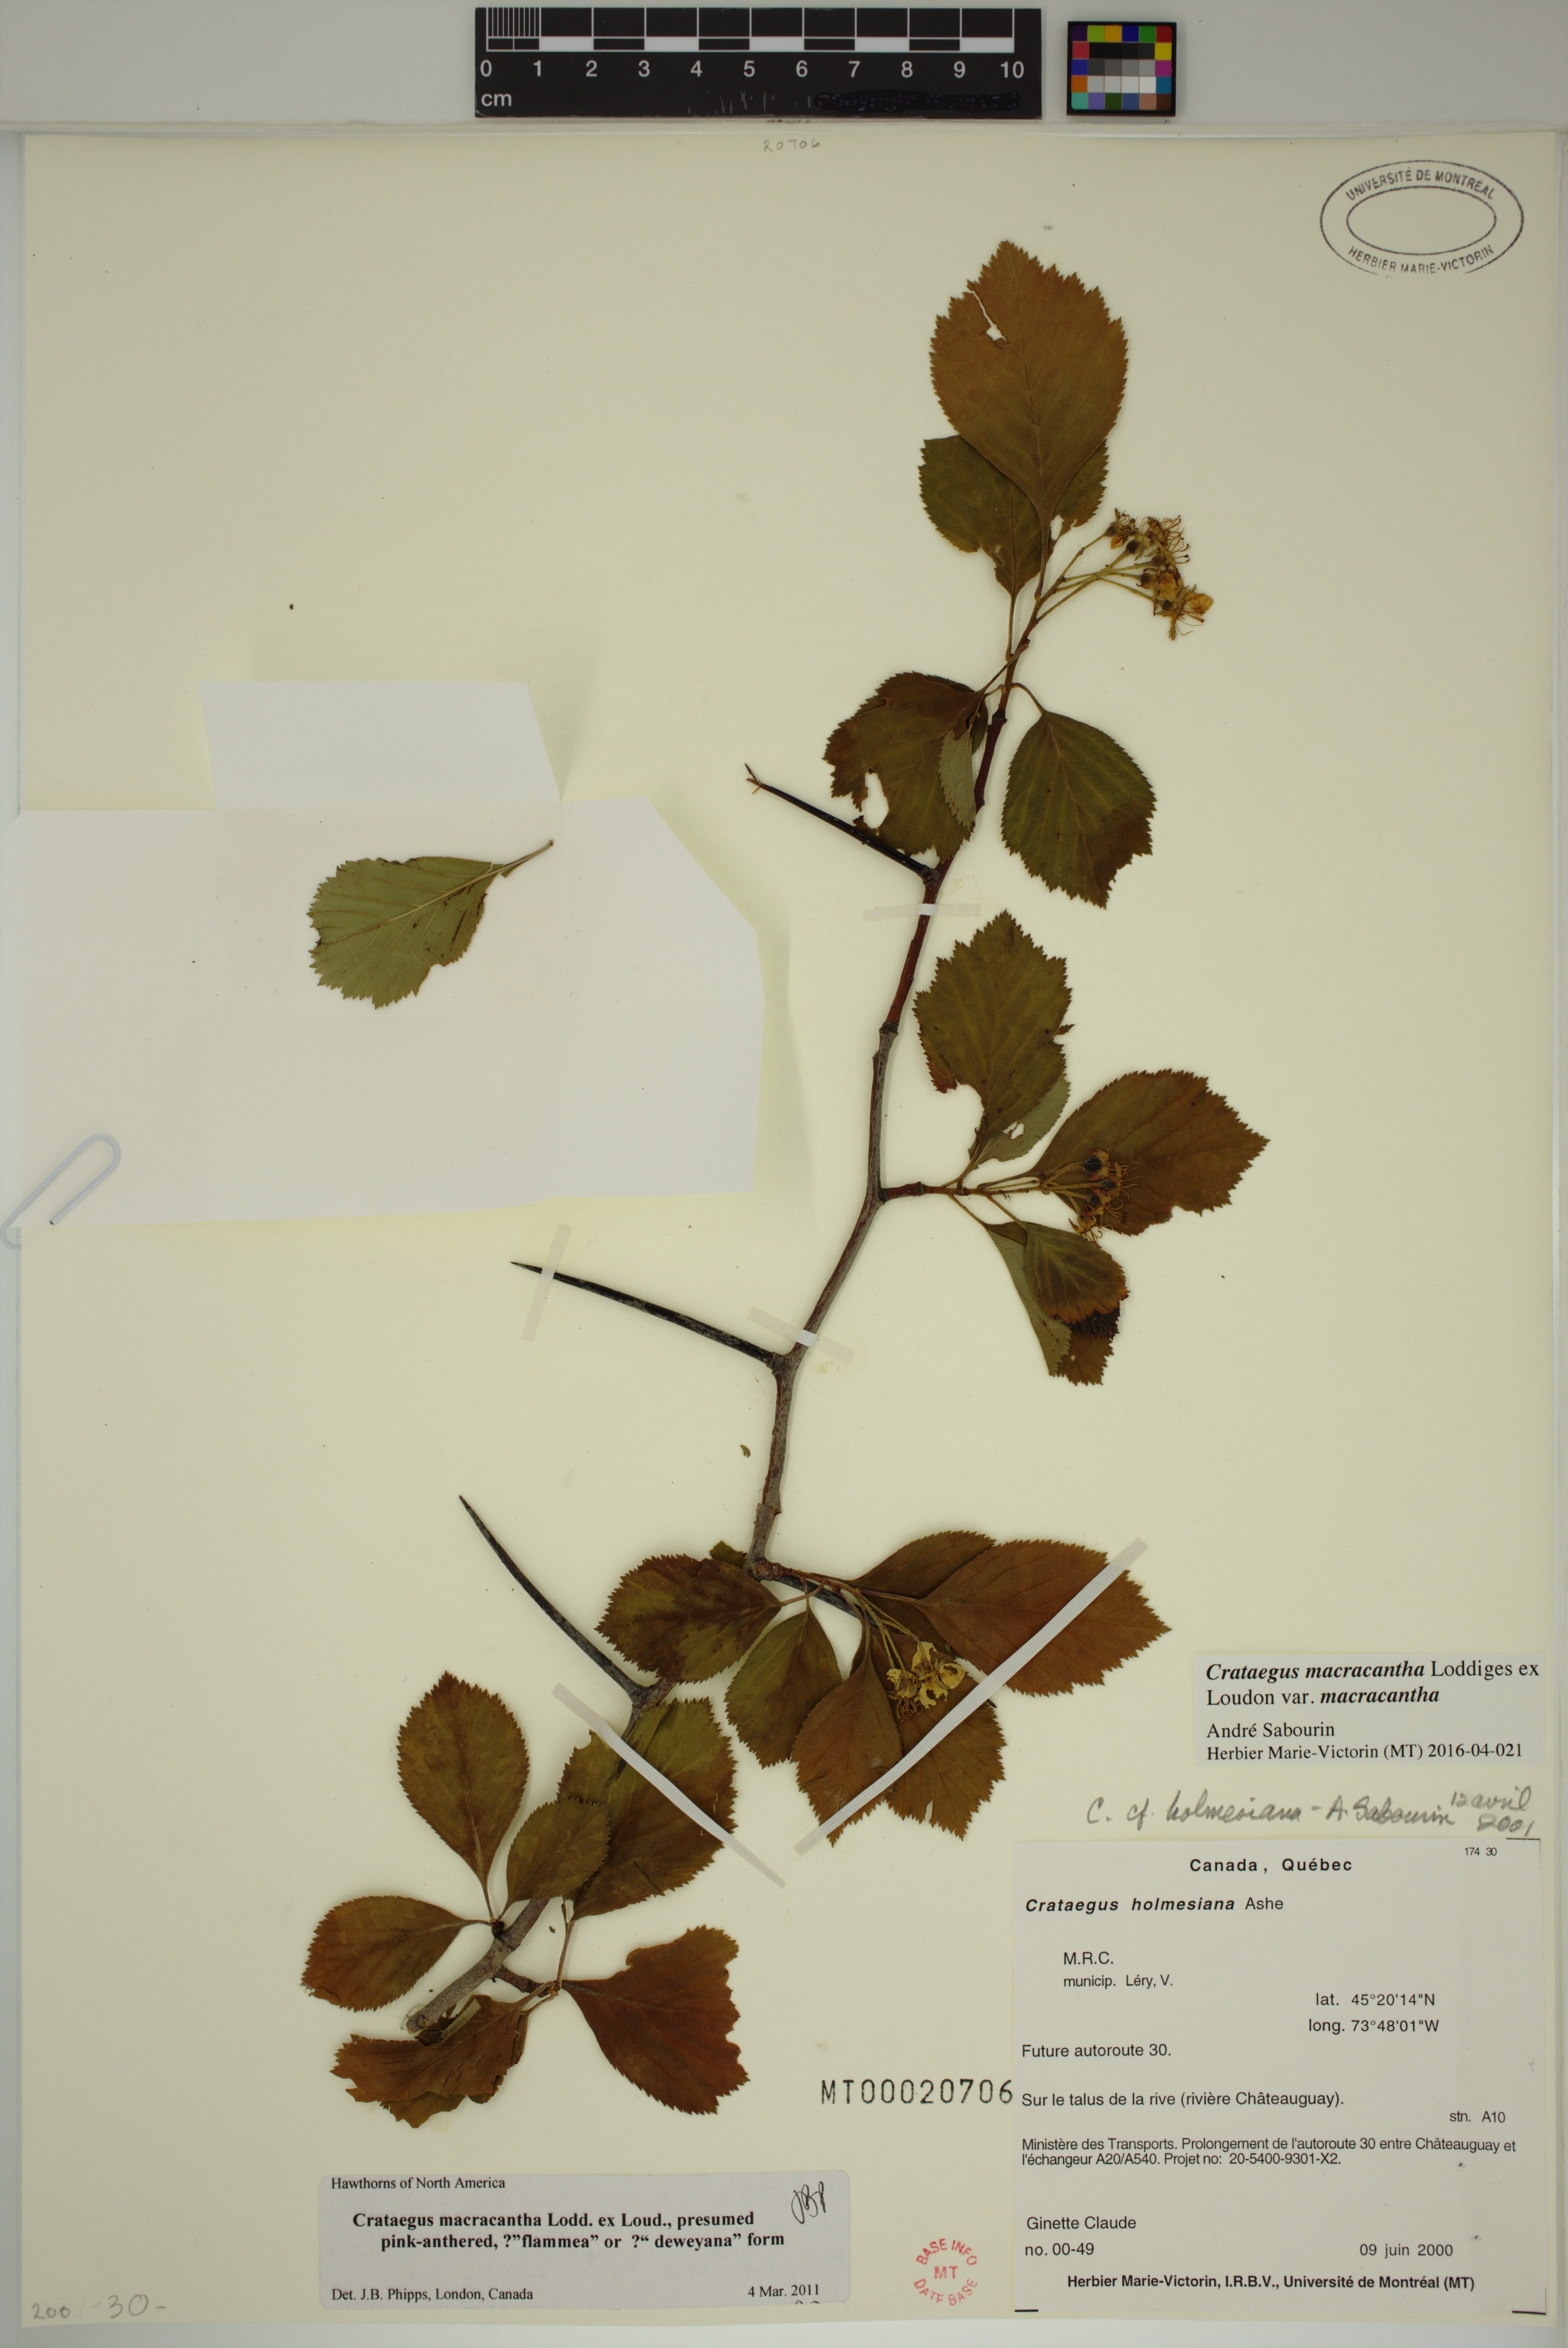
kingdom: Plantae
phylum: Tracheophyta
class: Magnoliopsida
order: Rosales
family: Rosaceae
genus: Crataegus
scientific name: Crataegus macracantha
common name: Large-thorn hawthorn
